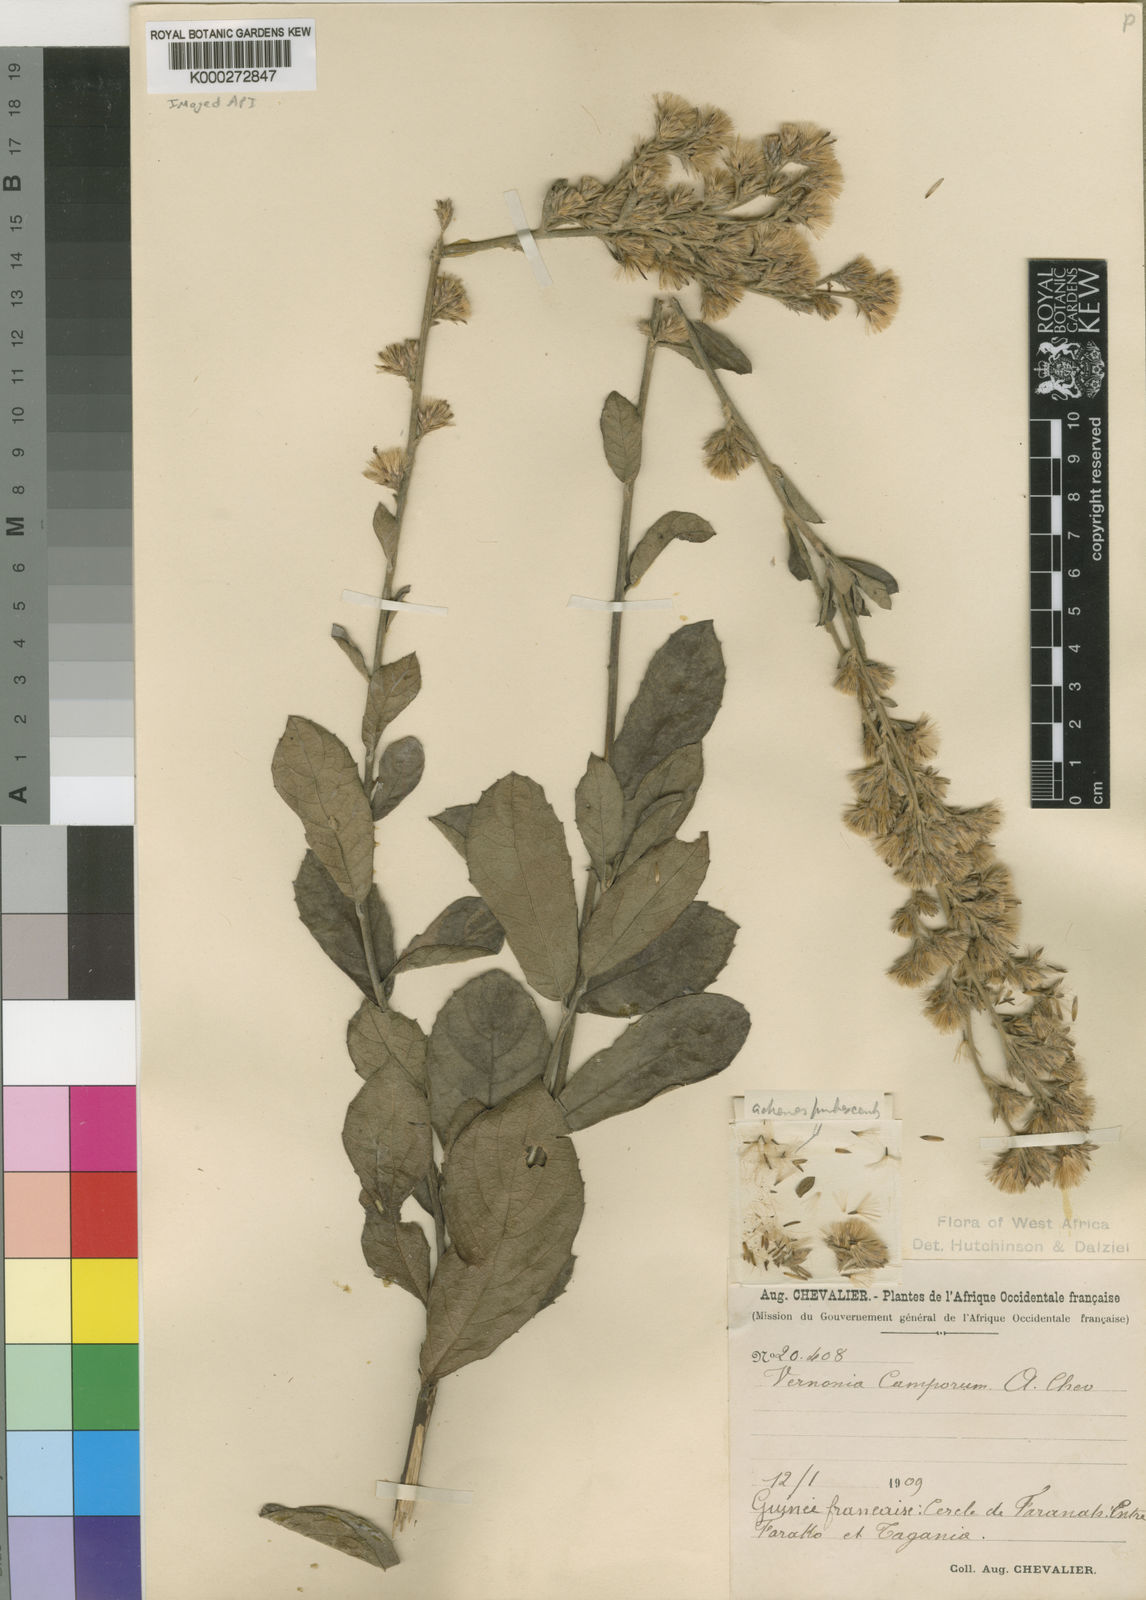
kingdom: Plantae
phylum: Tracheophyta
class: Magnoliopsida
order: Asterales
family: Asteraceae
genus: Vernoniastrum
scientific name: Vernoniastrum camporum
